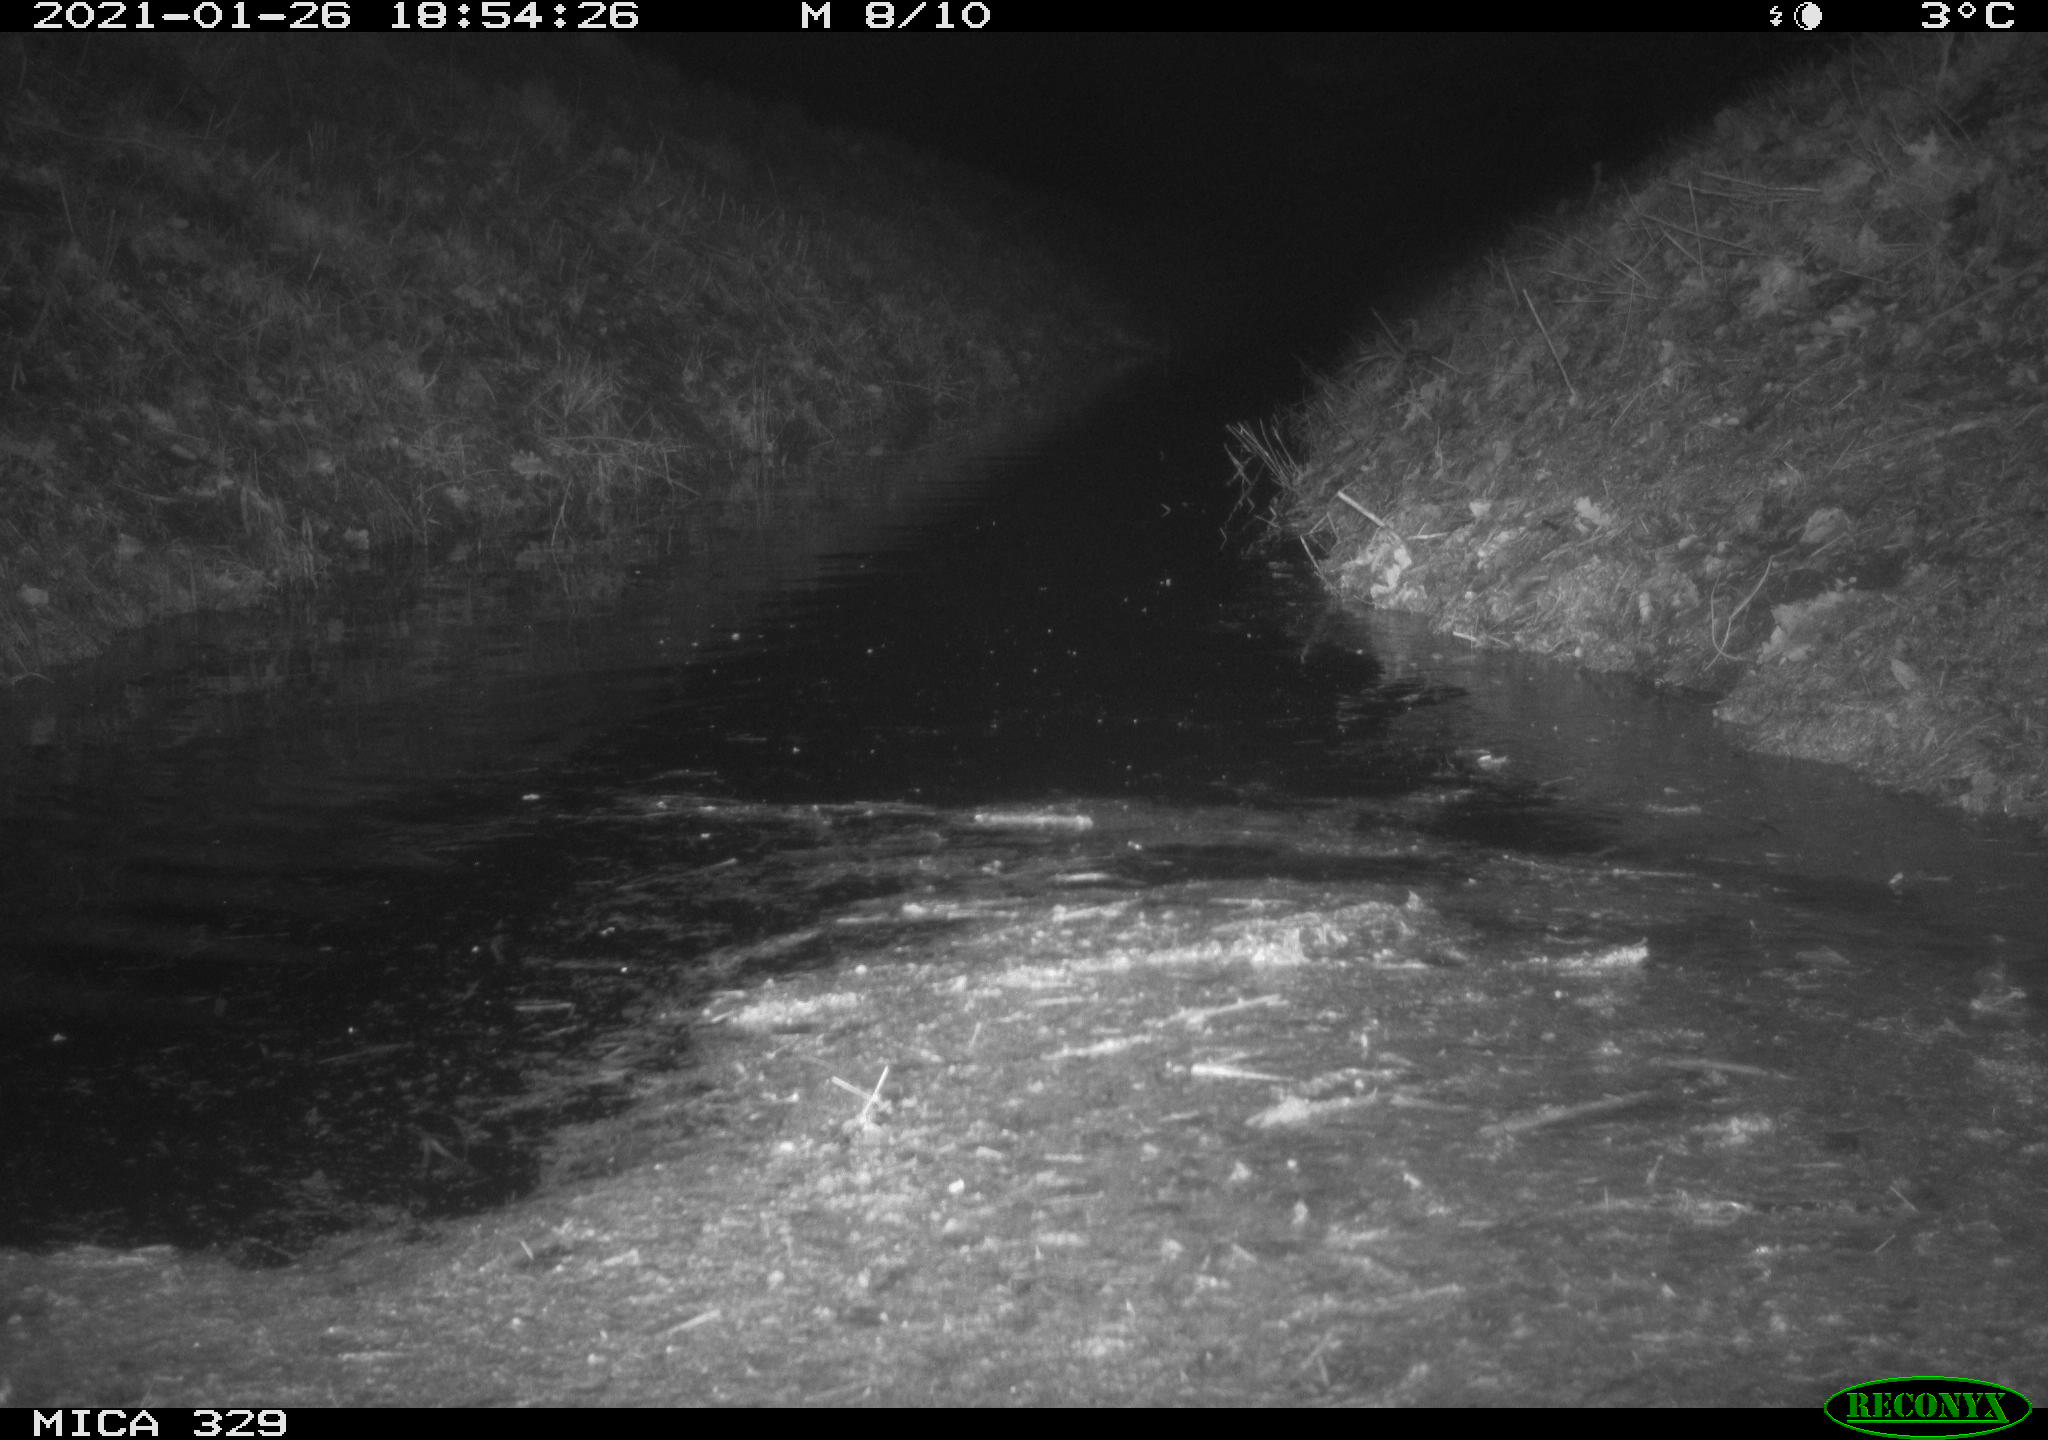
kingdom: Animalia
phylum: Chordata
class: Mammalia
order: Rodentia
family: Myocastoridae
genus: Myocastor
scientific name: Myocastor coypus
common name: Coypu
